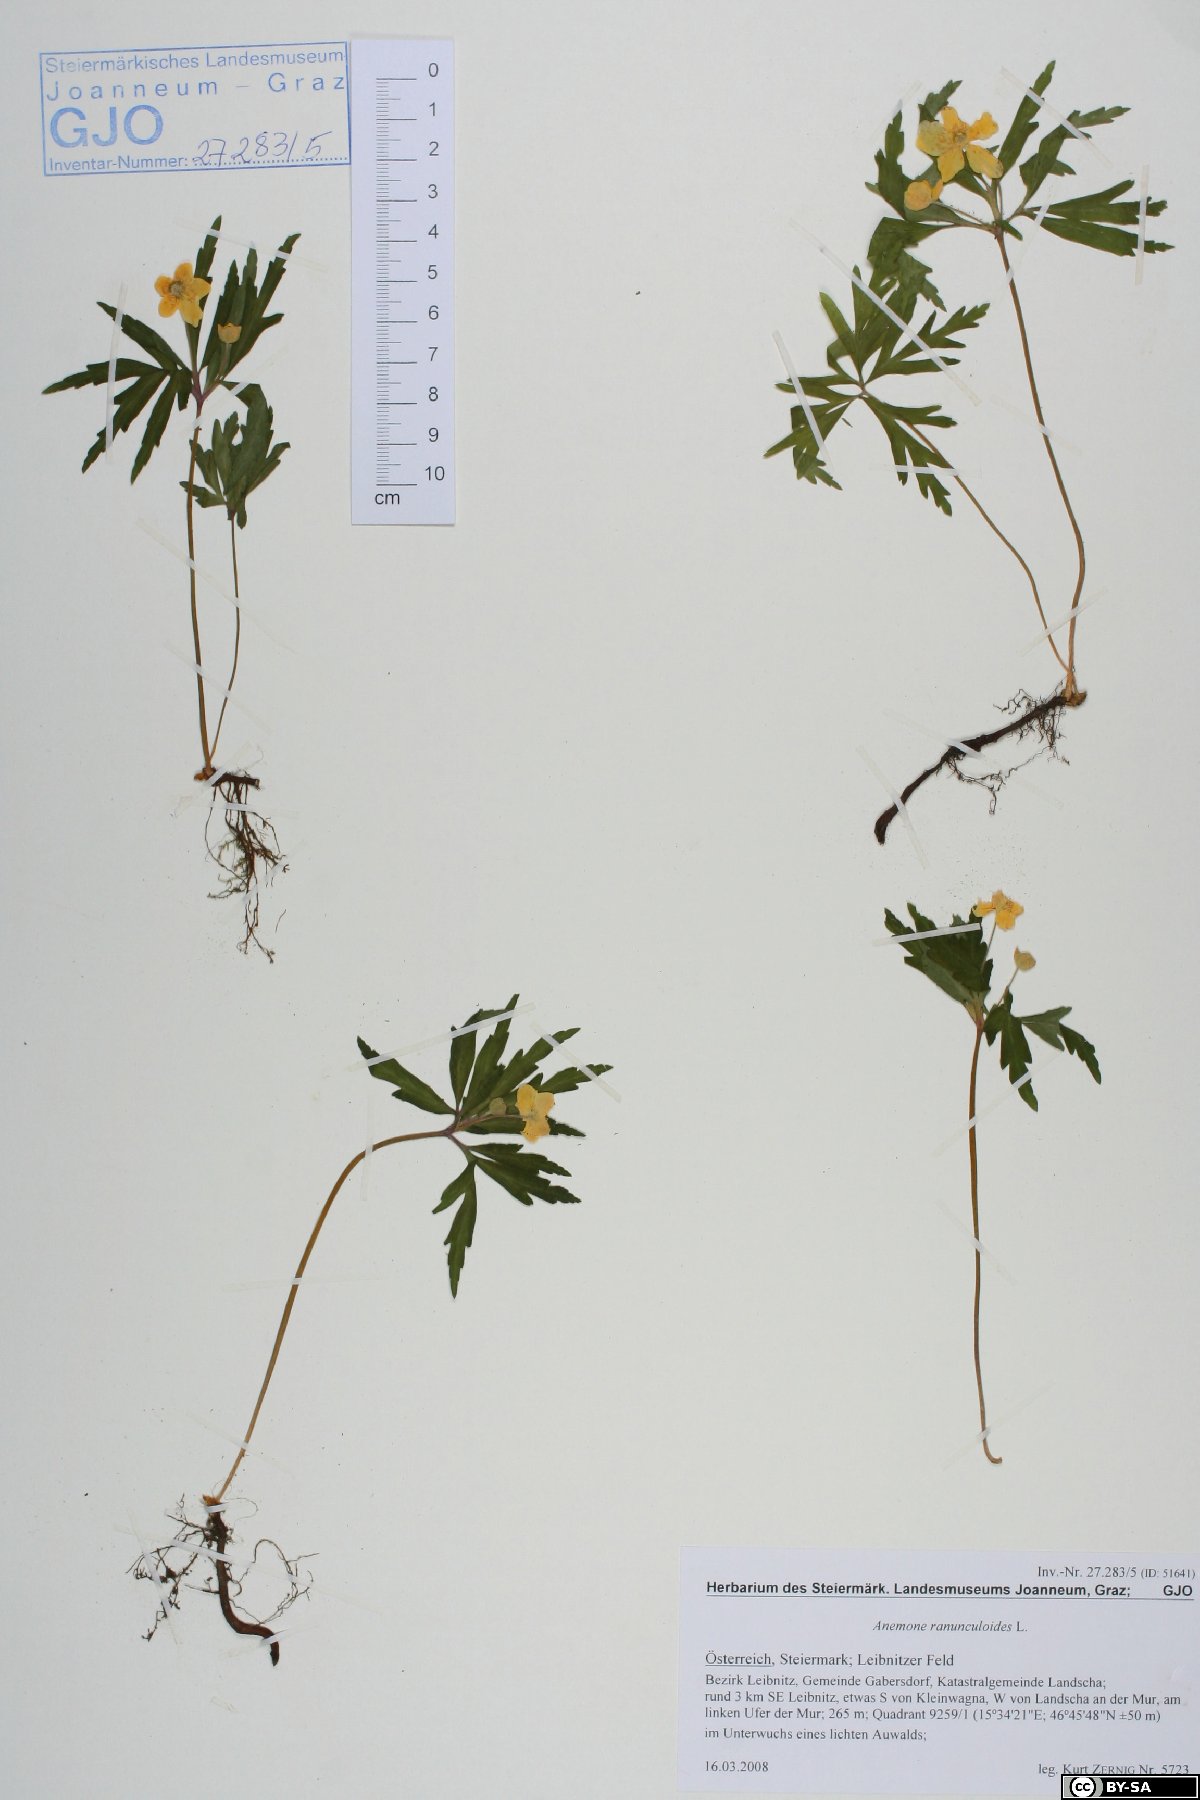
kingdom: Plantae
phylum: Tracheophyta
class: Magnoliopsida
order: Ranunculales
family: Ranunculaceae
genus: Anemone
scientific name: Anemone ranunculoides
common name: Yellow anemone
